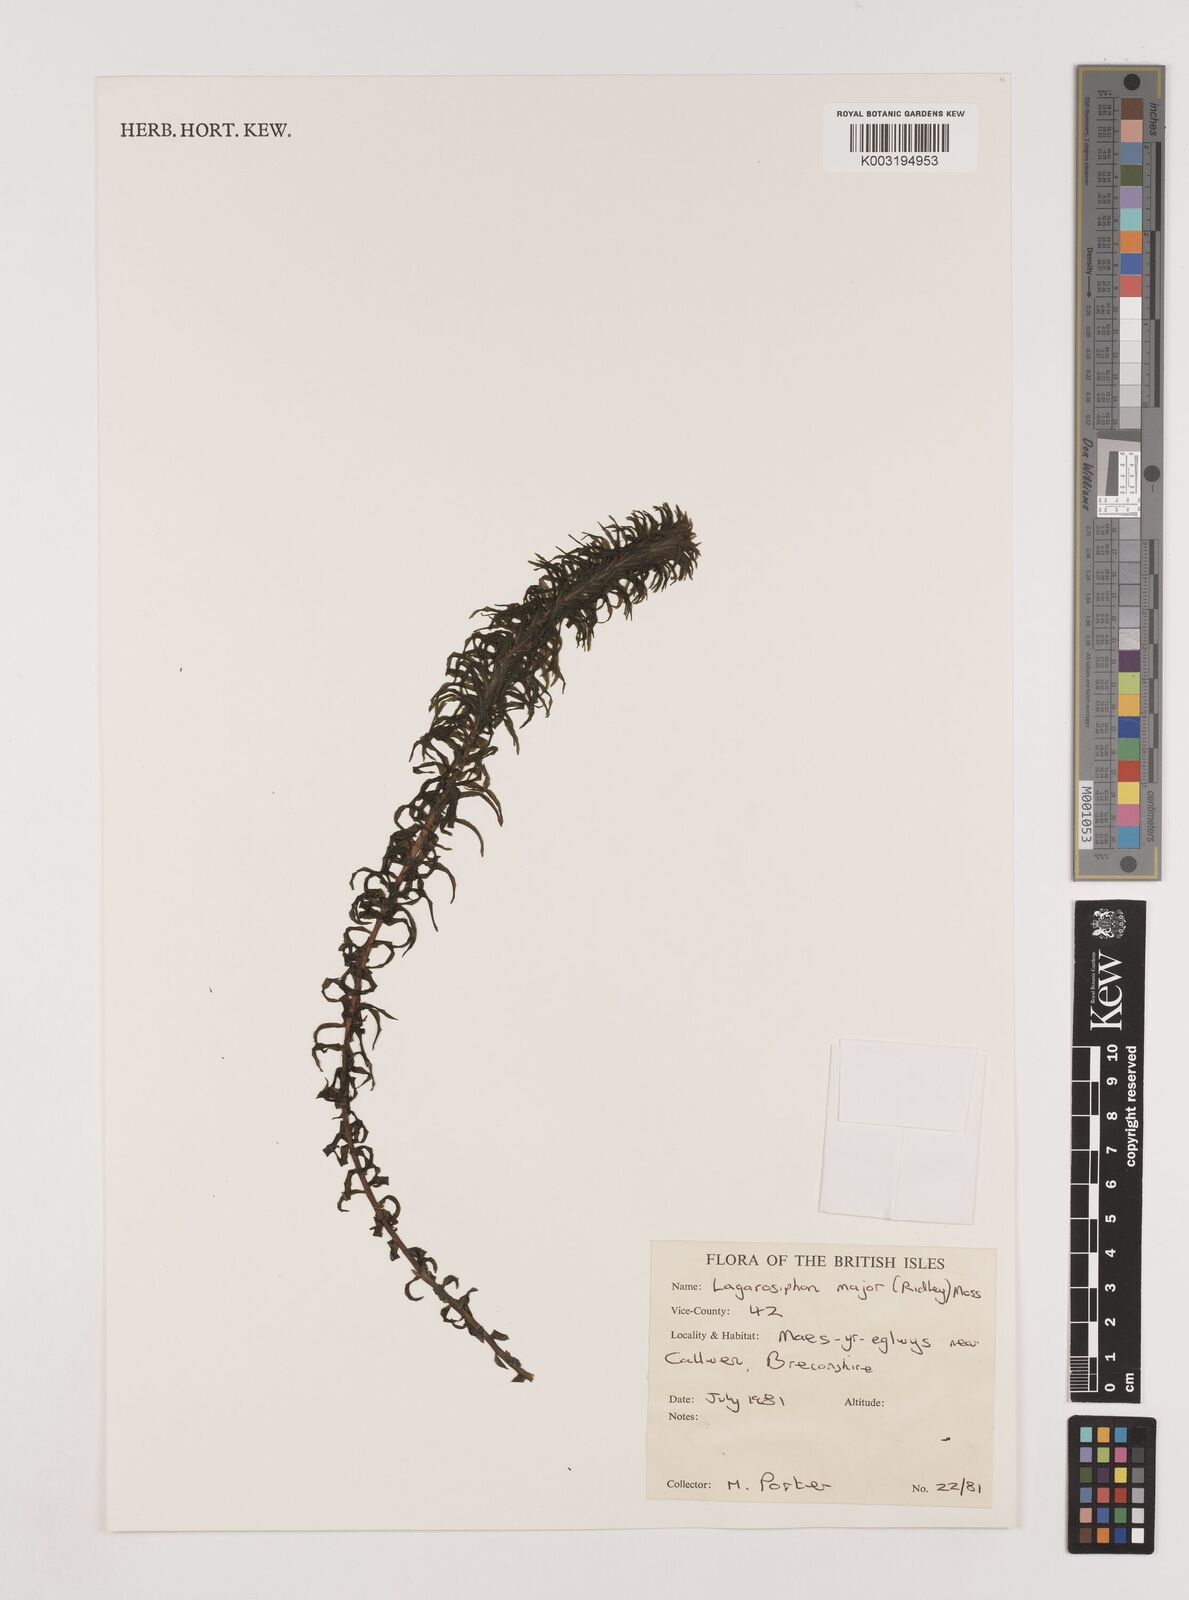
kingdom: Plantae
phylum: Tracheophyta
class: Liliopsida
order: Alismatales
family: Hydrocharitaceae
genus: Lagarosiphon
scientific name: Lagarosiphon major
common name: Curly waterweed
